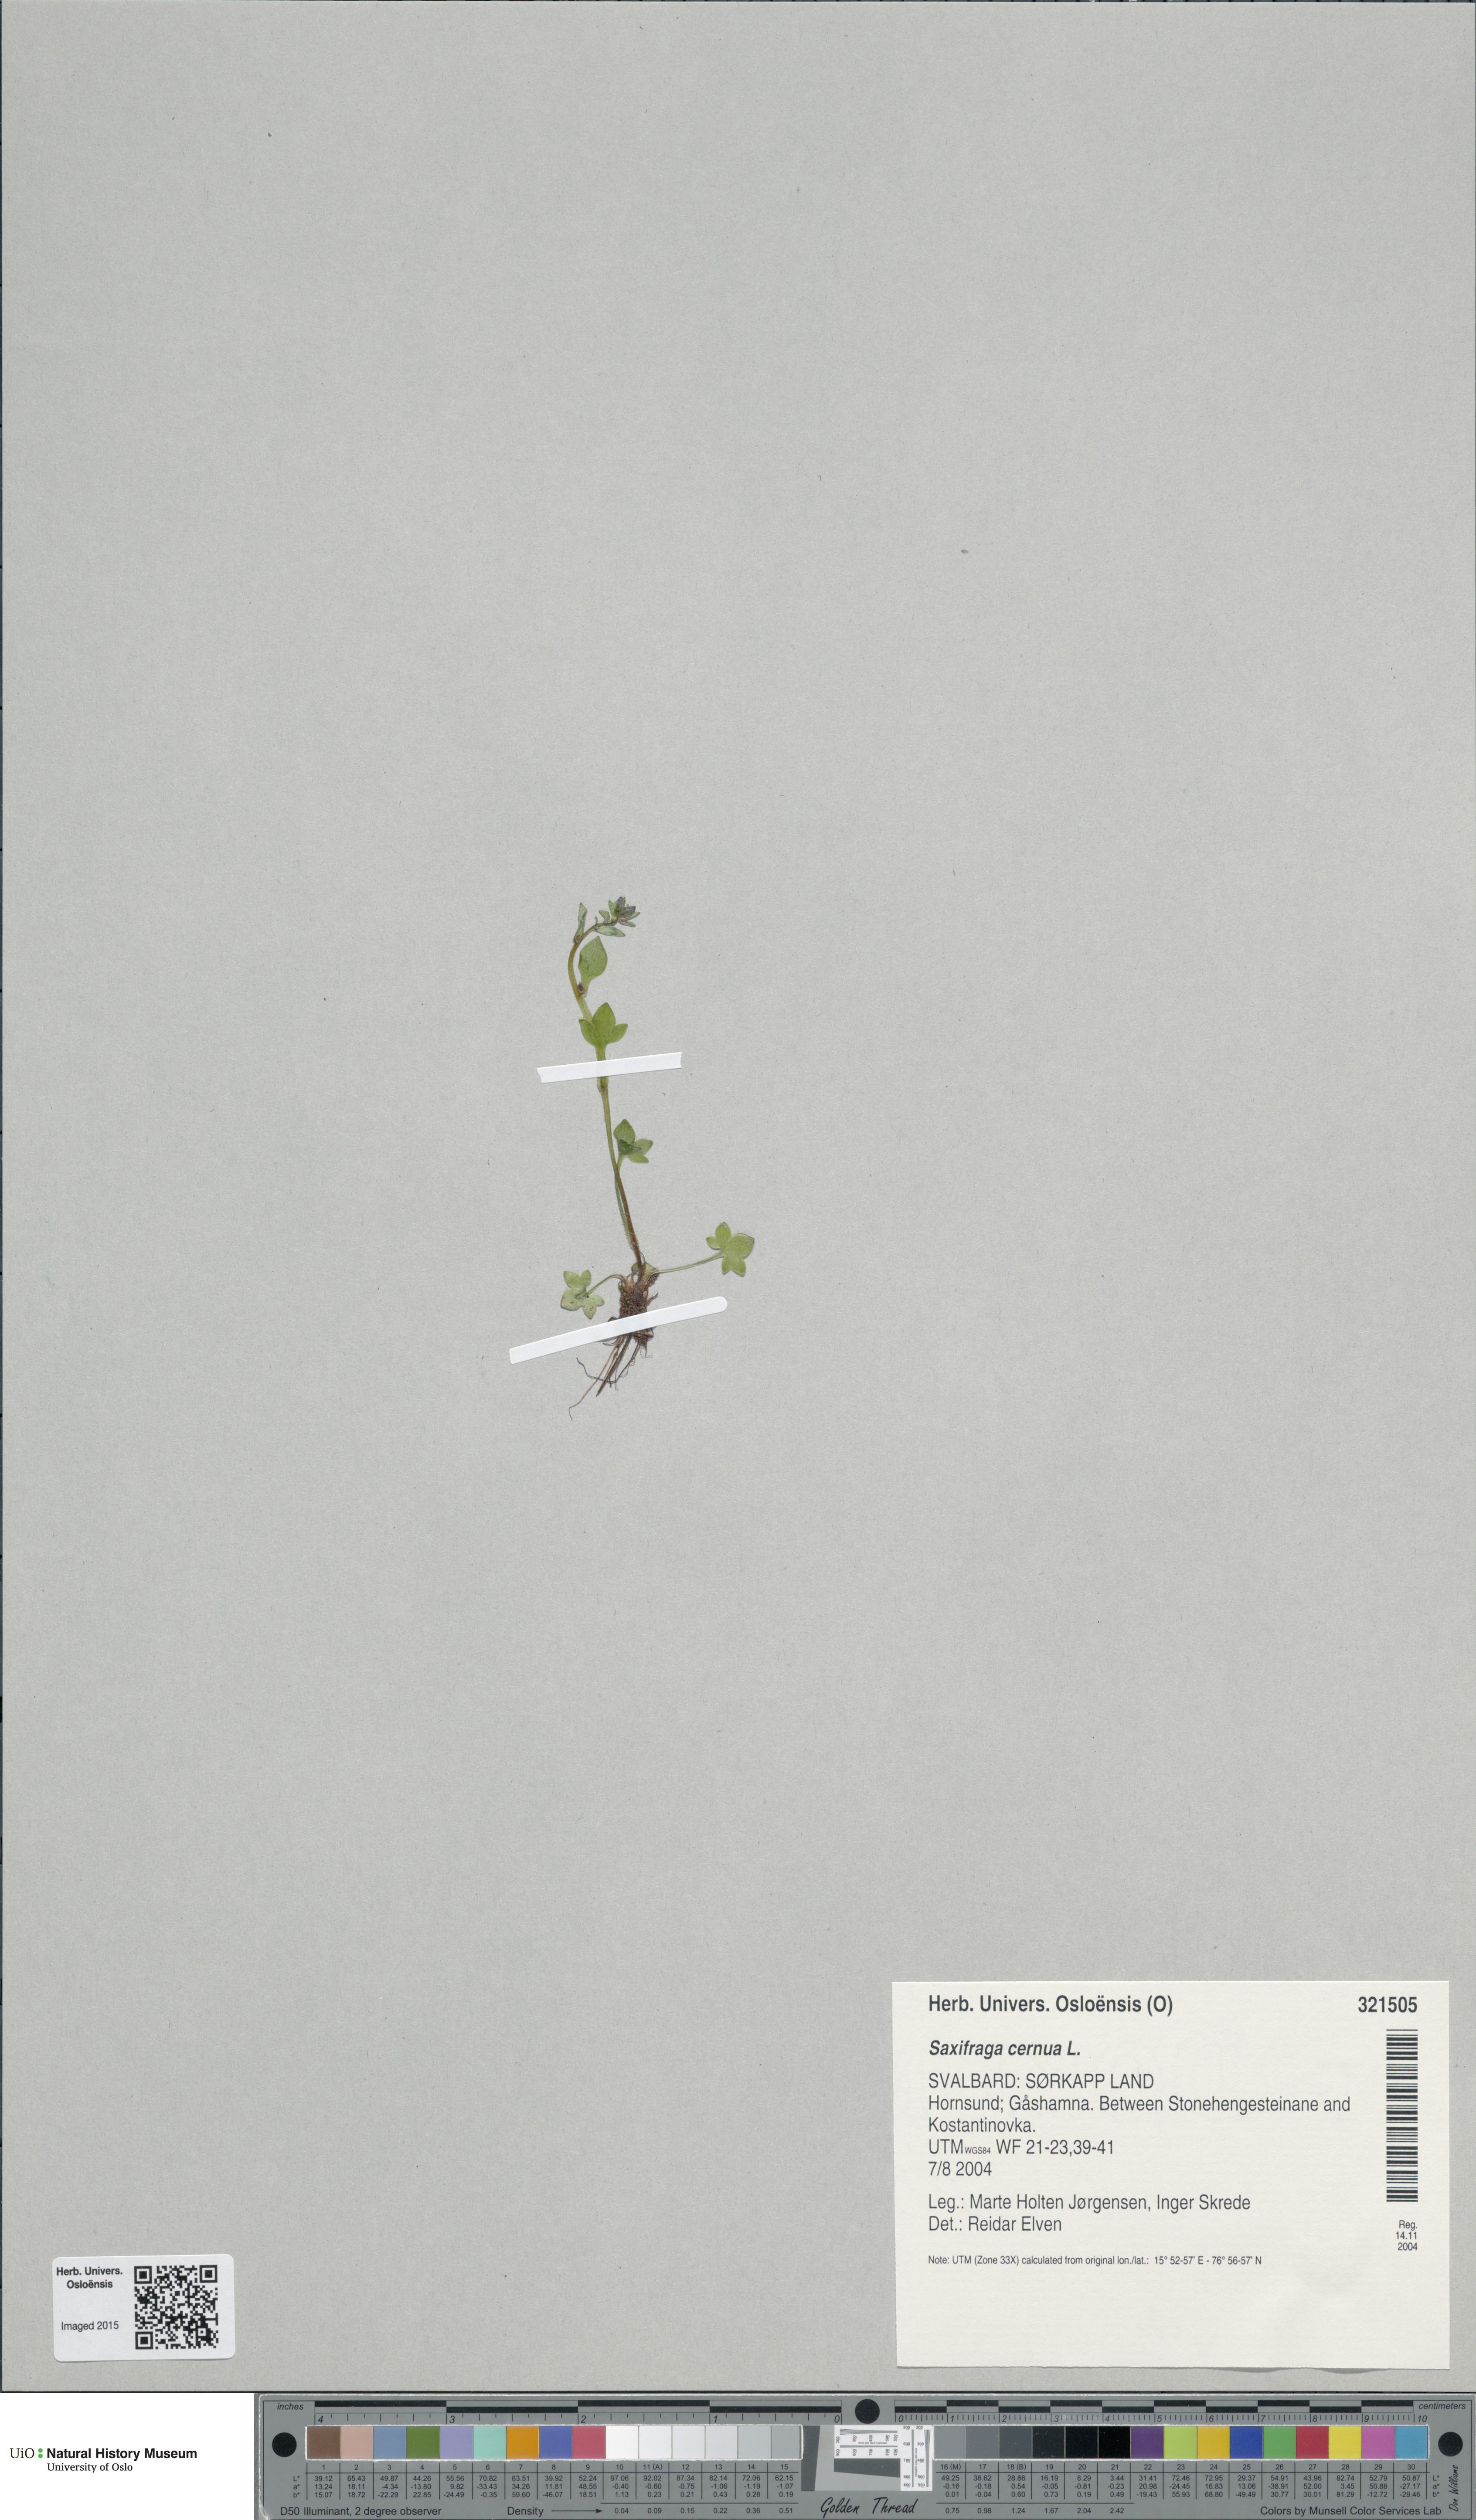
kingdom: Plantae
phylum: Tracheophyta
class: Magnoliopsida
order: Saxifragales
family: Saxifragaceae
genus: Saxifraga
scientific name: Saxifraga cernua
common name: Drooping saxifrage
